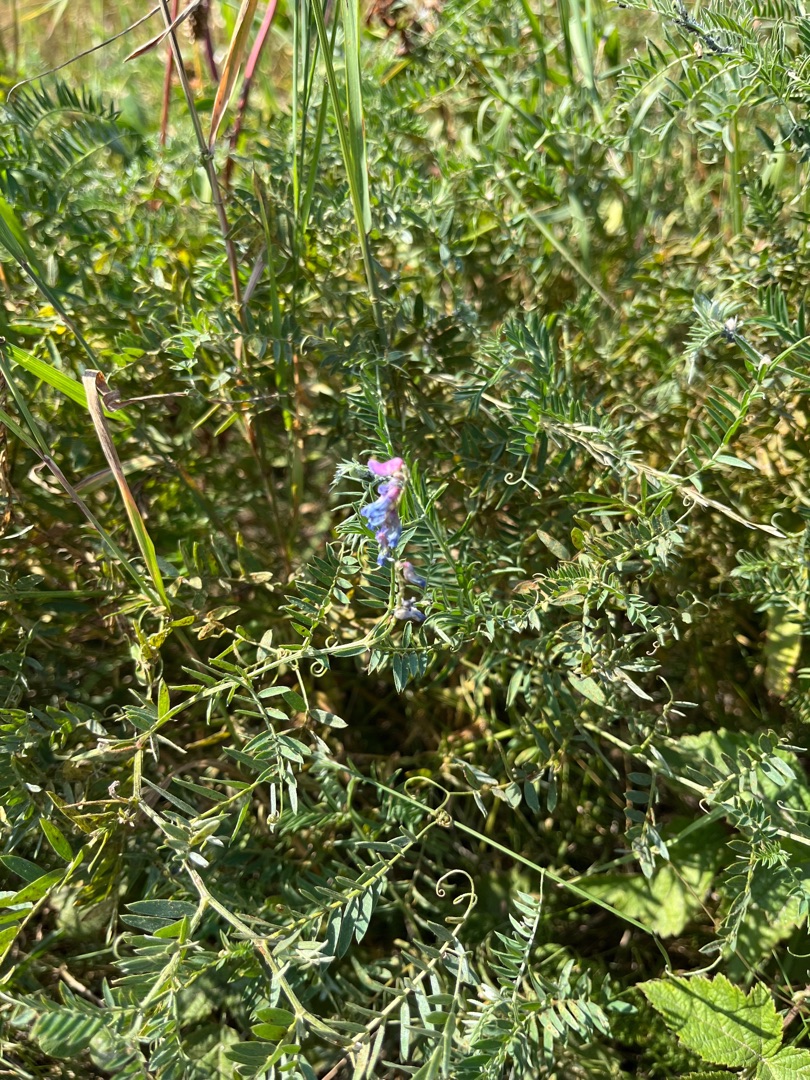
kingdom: Plantae
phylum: Tracheophyta
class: Magnoliopsida
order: Fabales
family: Fabaceae
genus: Vicia
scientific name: Vicia cracca
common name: Muse-vikke
